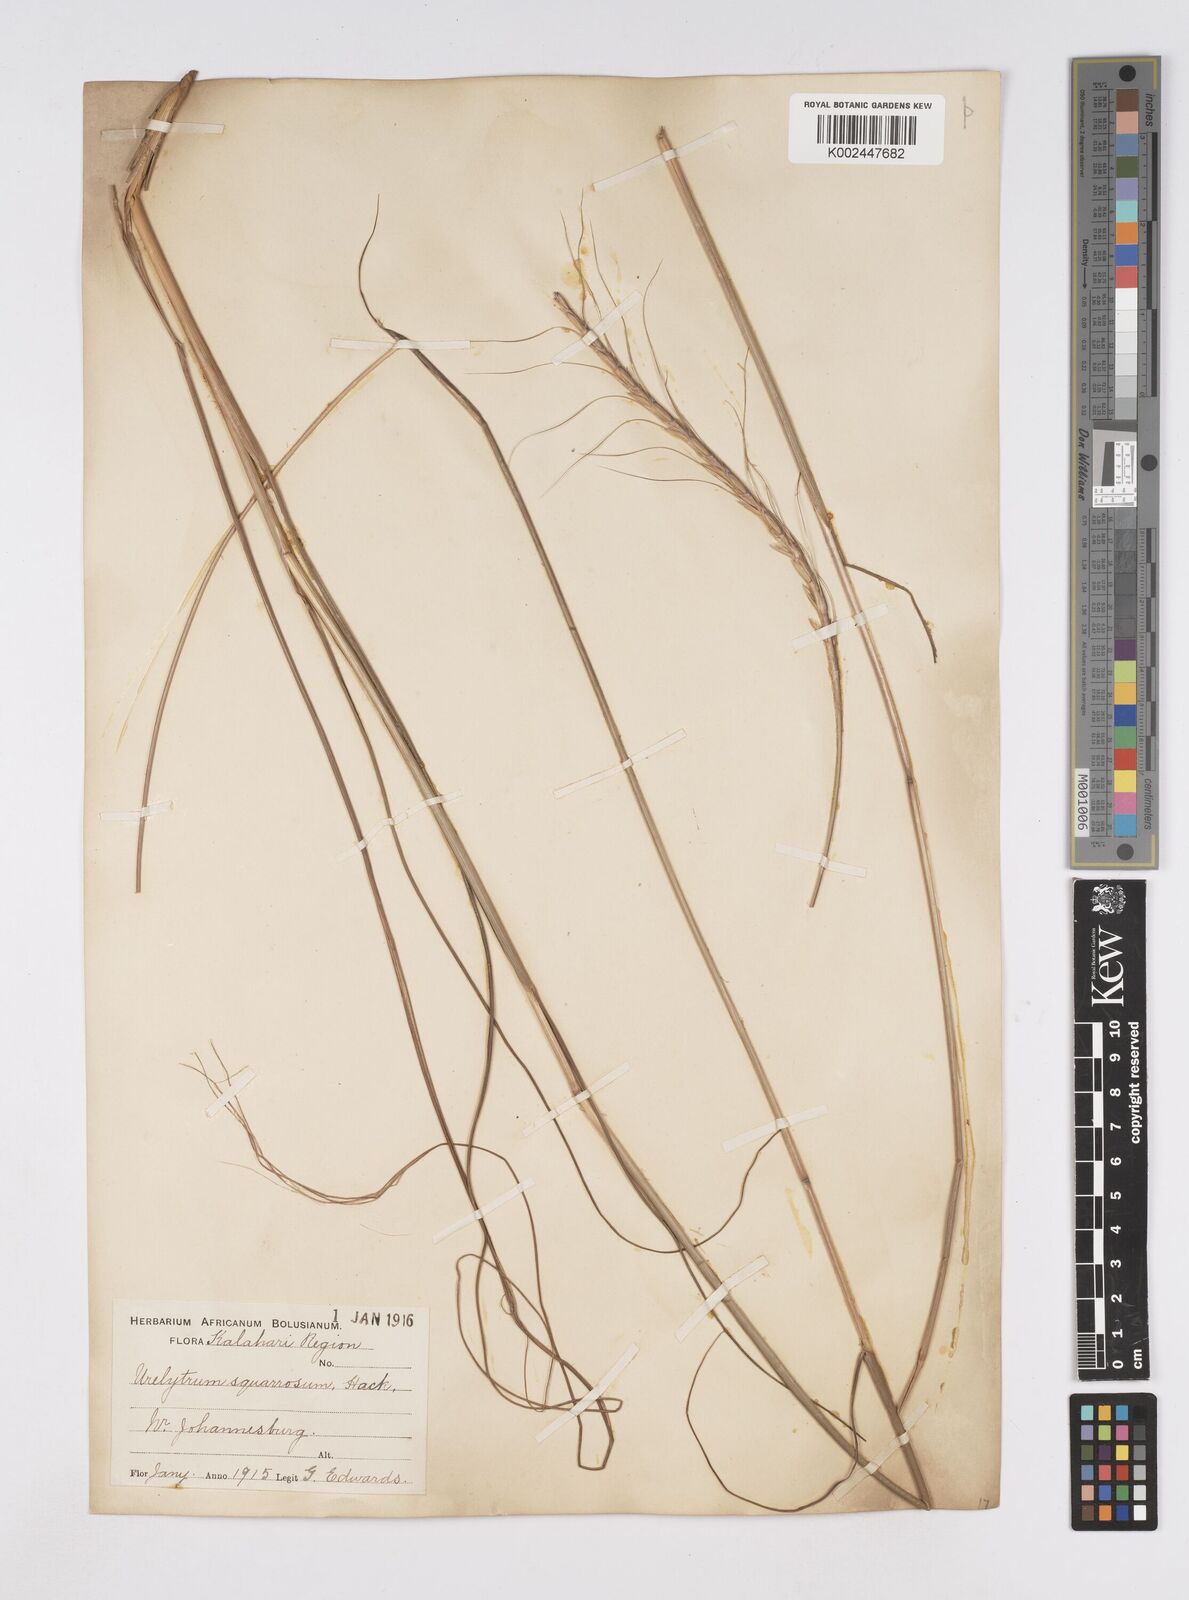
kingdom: Plantae
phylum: Tracheophyta
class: Liliopsida
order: Poales
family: Poaceae
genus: Urelytrum
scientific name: Urelytrum agropyroides
